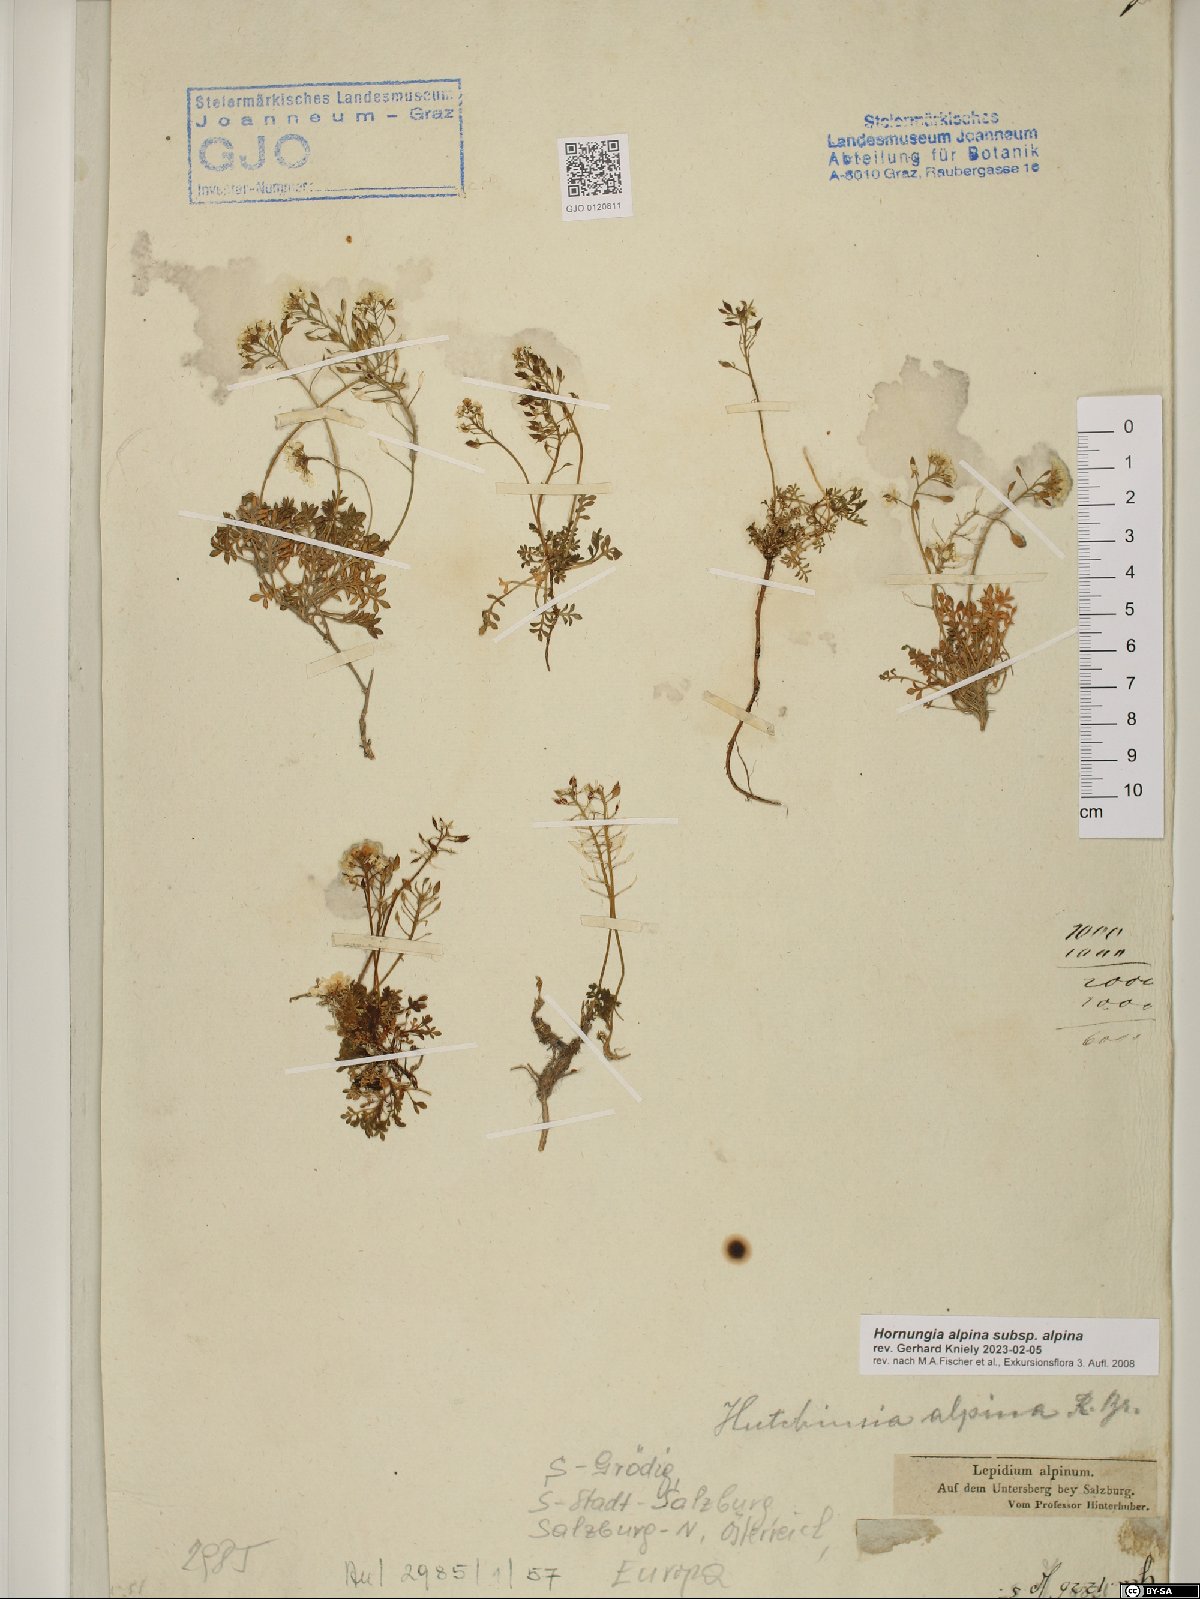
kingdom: Plantae
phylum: Tracheophyta
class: Magnoliopsida
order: Brassicales
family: Brassicaceae
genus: Hornungia
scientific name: Hornungia alpina
